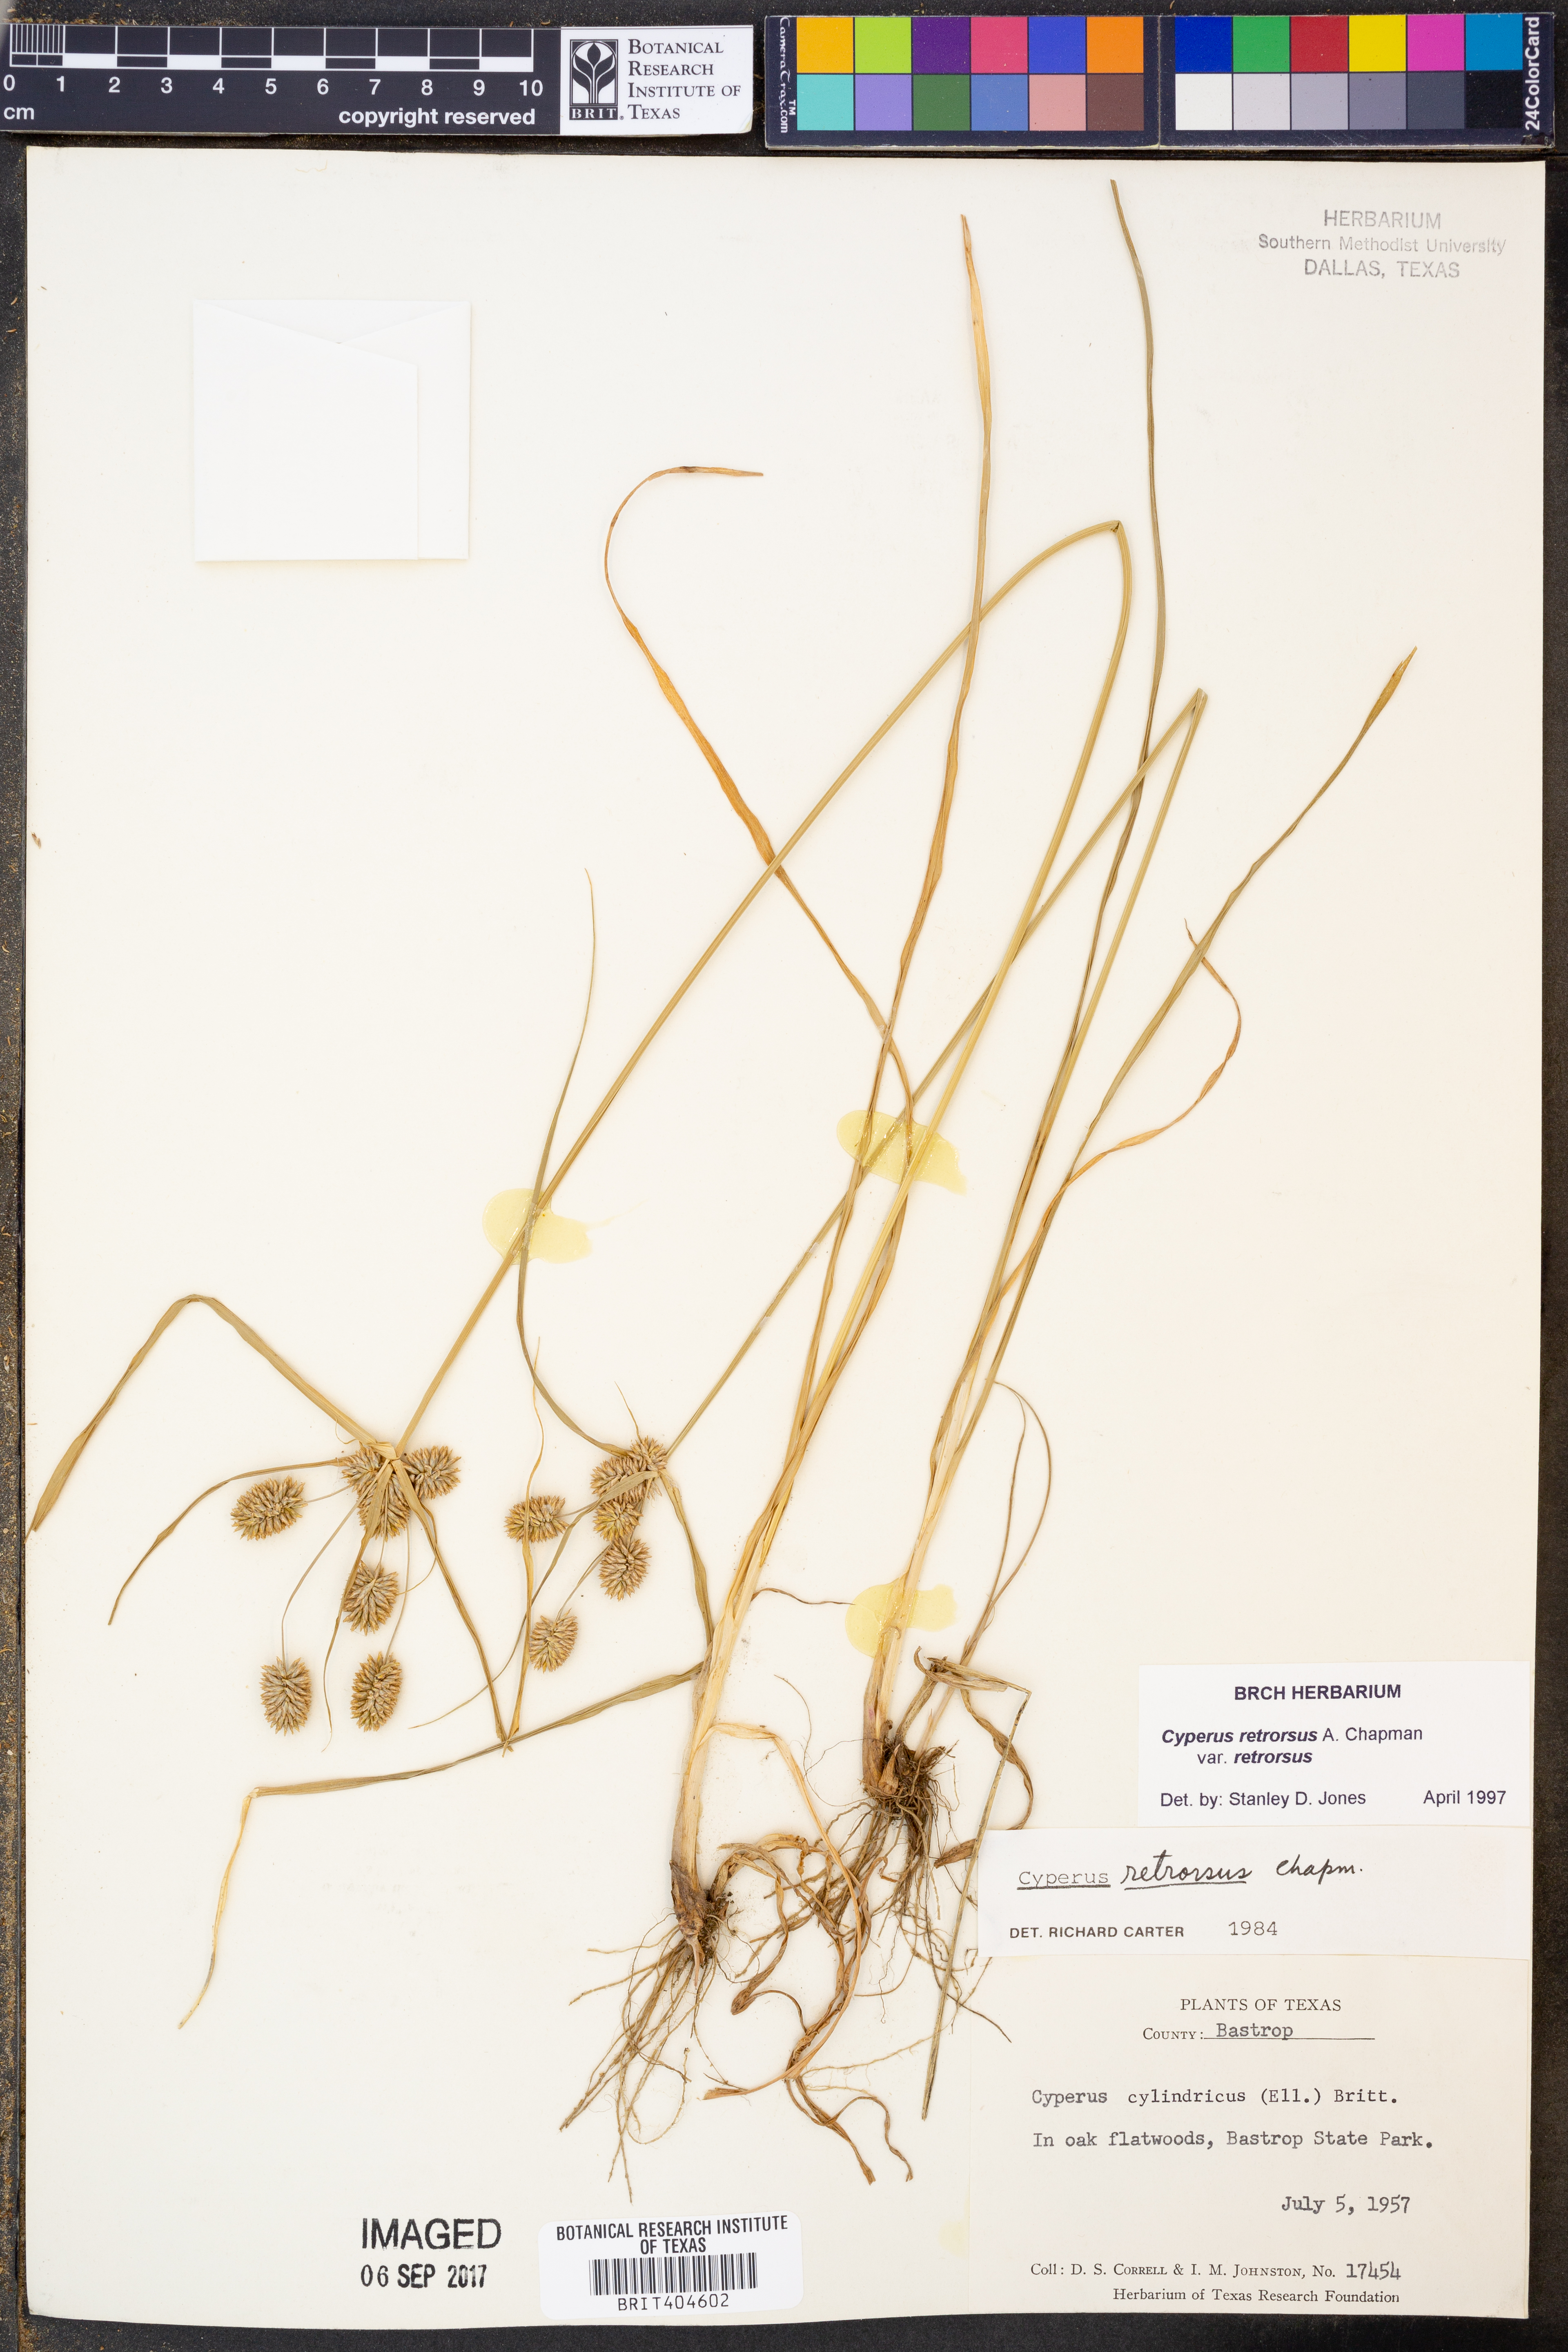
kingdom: Plantae
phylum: Tracheophyta
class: Liliopsida
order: Poales
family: Cyperaceae
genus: Cyperus
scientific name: Cyperus retrorsus
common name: Pinebarren flat sedge
